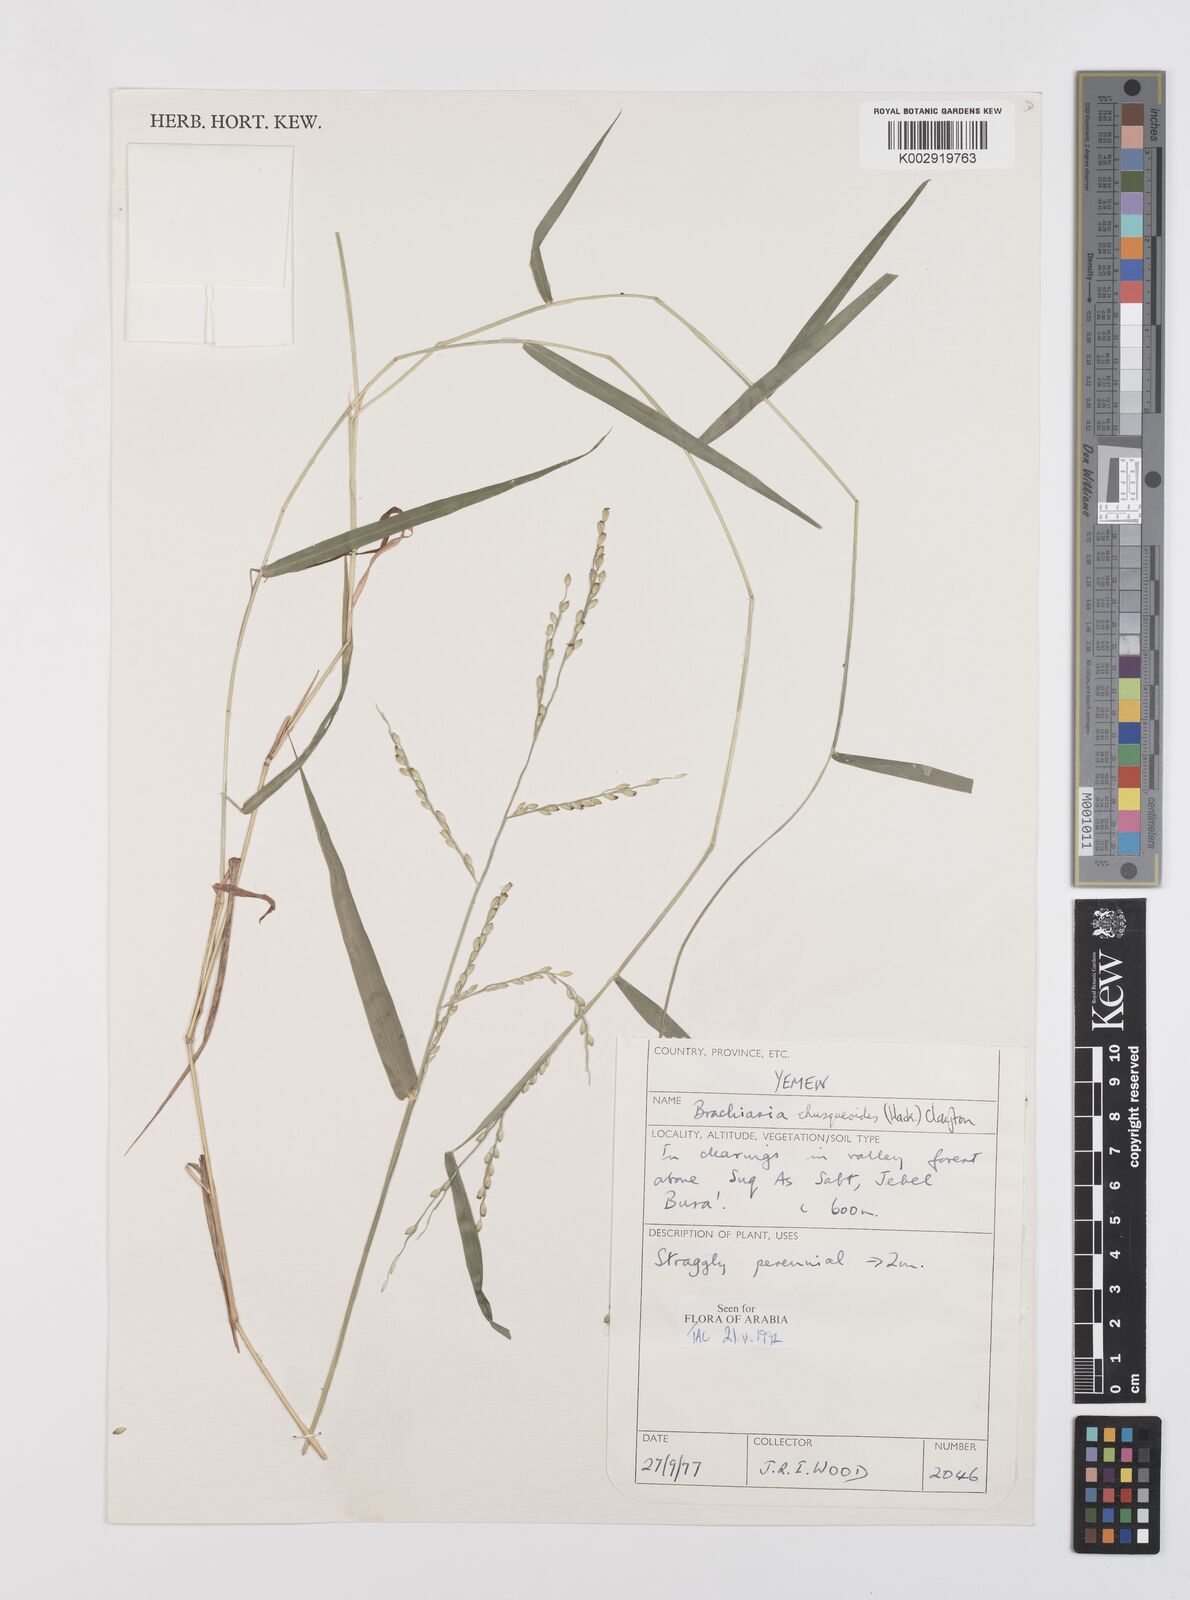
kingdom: Plantae
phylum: Tracheophyta
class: Liliopsida
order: Poales
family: Poaceae
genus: Urochloa
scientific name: Urochloa chusqueoides
